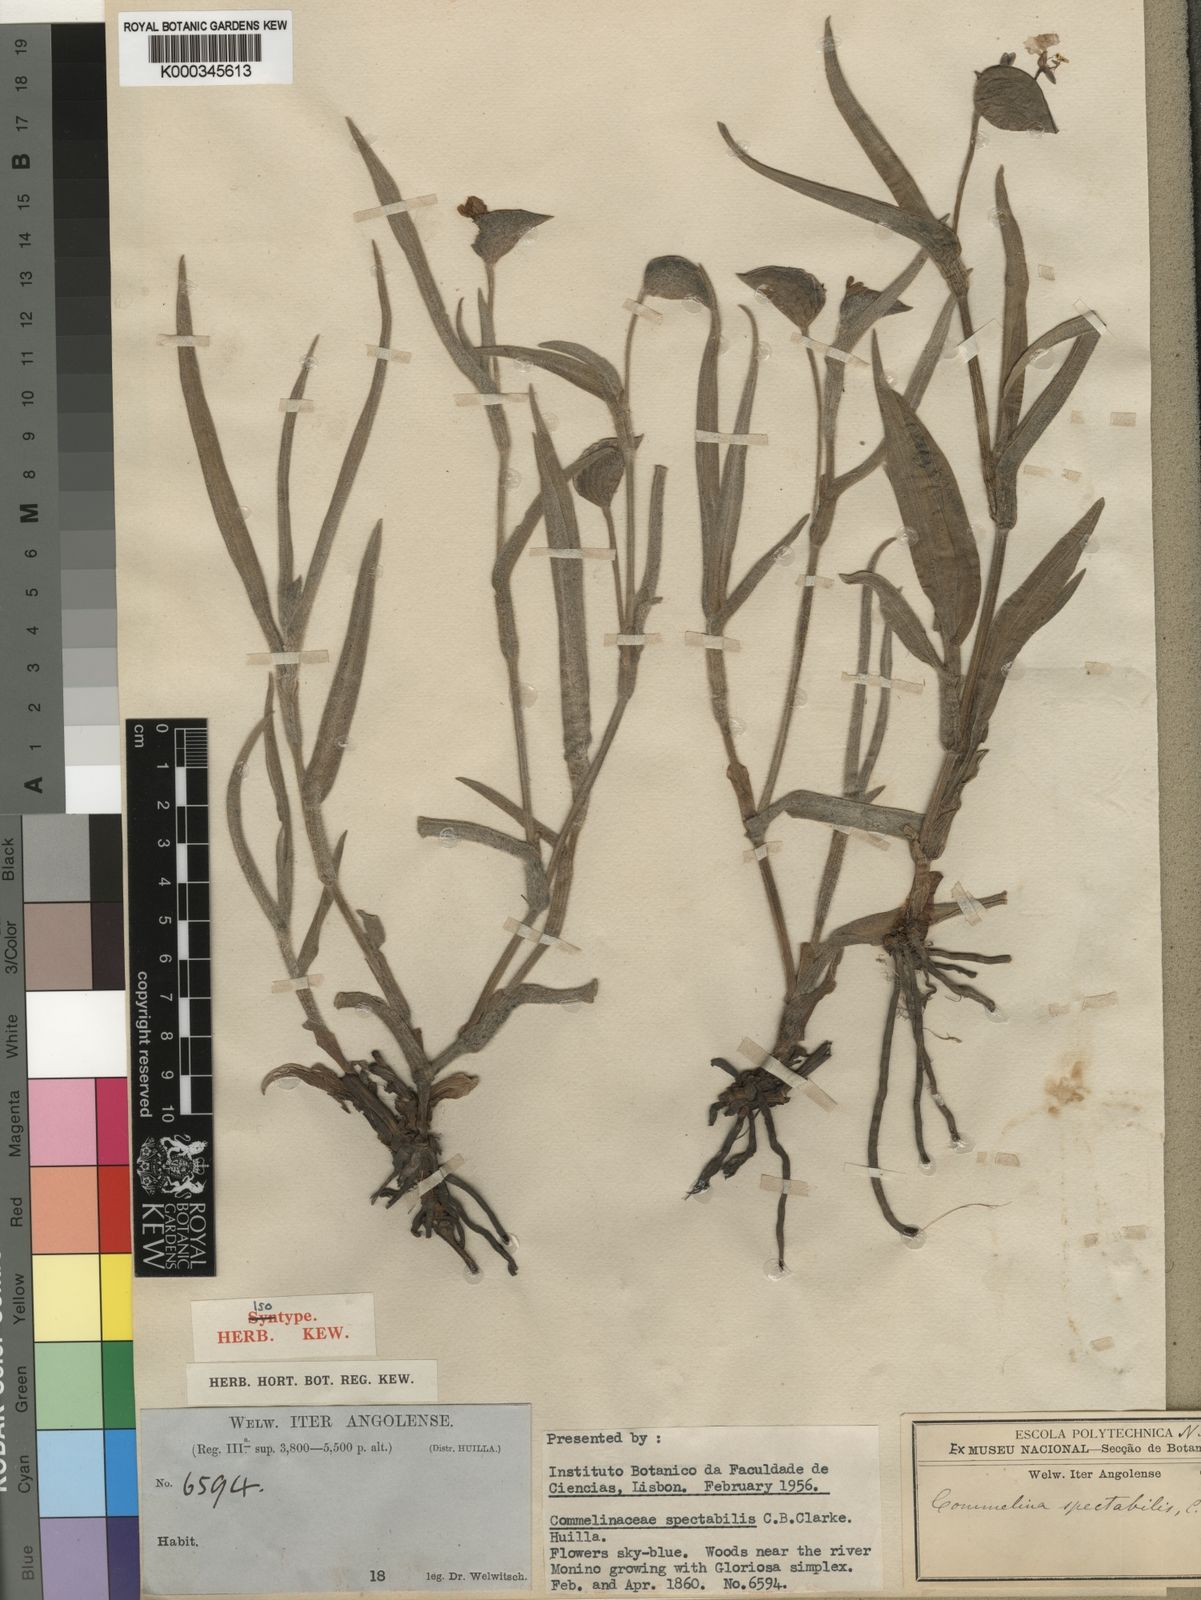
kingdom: Plantae
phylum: Tracheophyta
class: Liliopsida
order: Commelinales
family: Commelinaceae
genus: Commelina
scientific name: Commelina spectabilis
